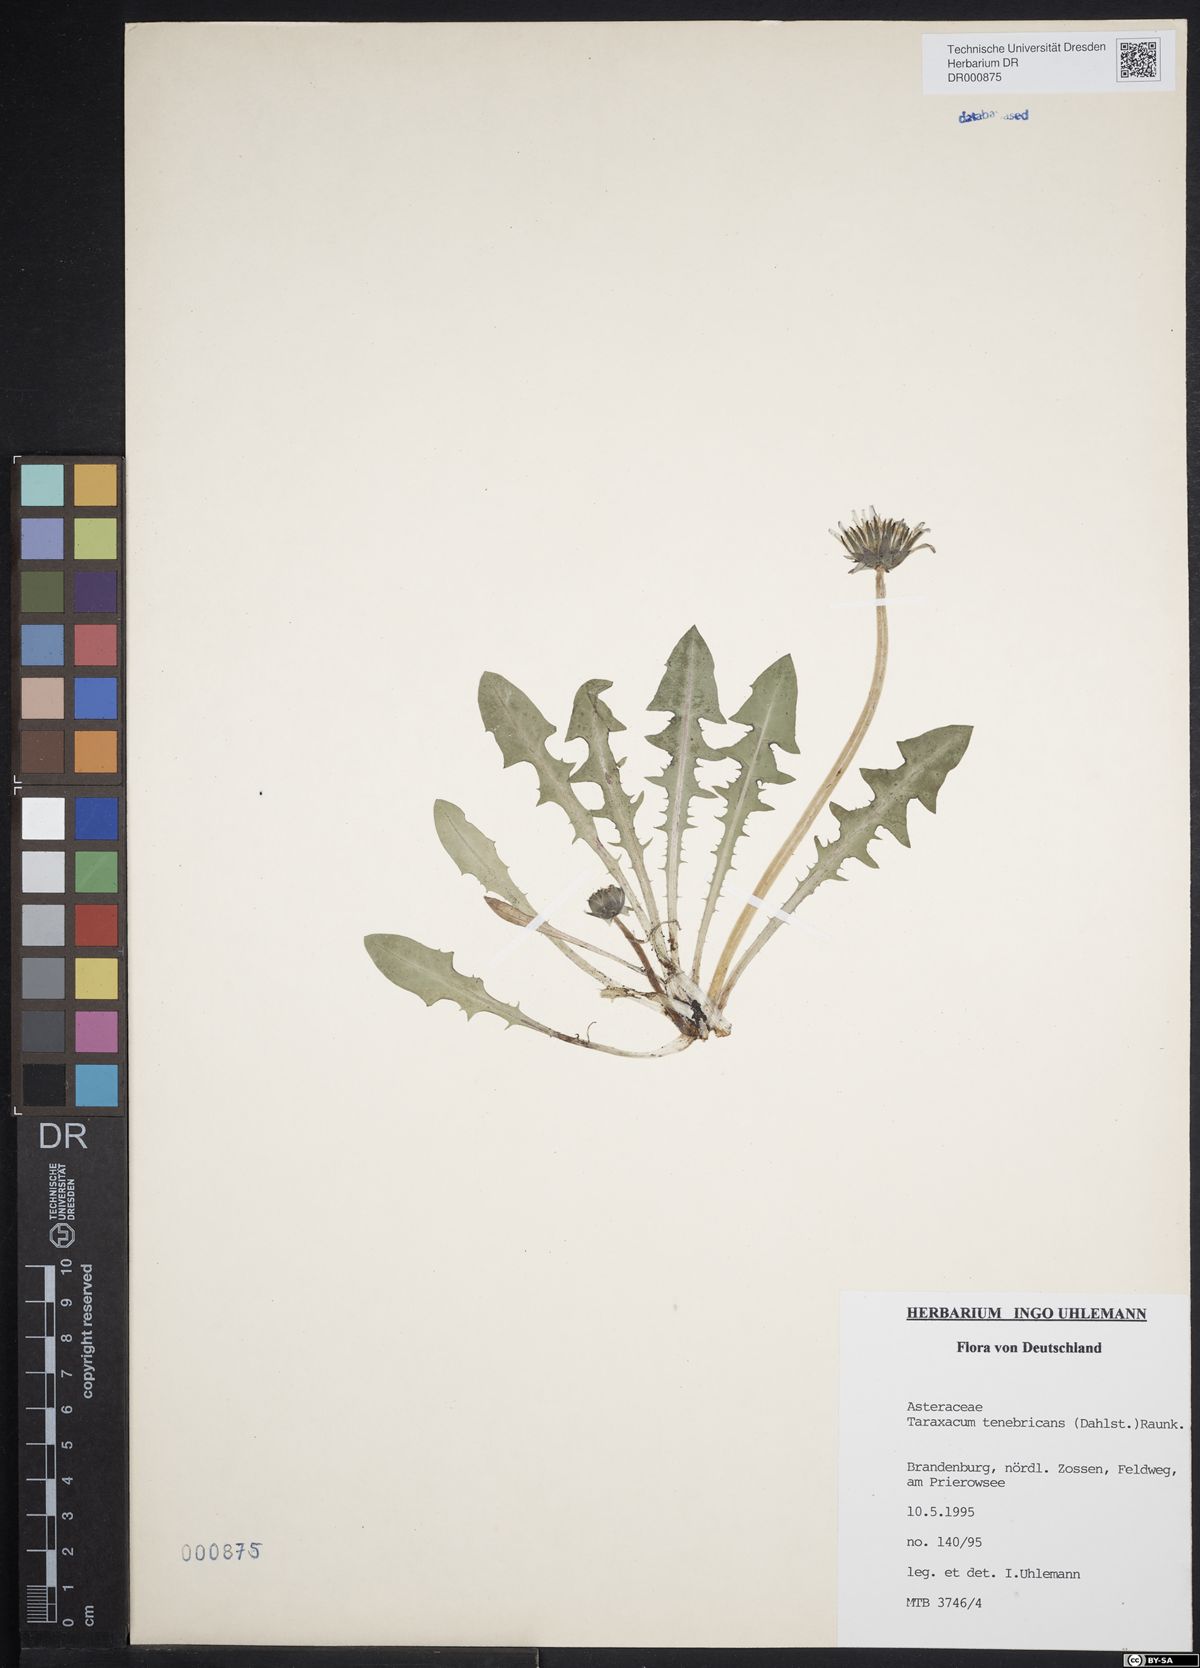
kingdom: Plantae
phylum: Tracheophyta
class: Magnoliopsida
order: Asterales
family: Asteraceae
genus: Taraxacum
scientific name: Taraxacum tenebricans
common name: Shiny-leaved dandelion
